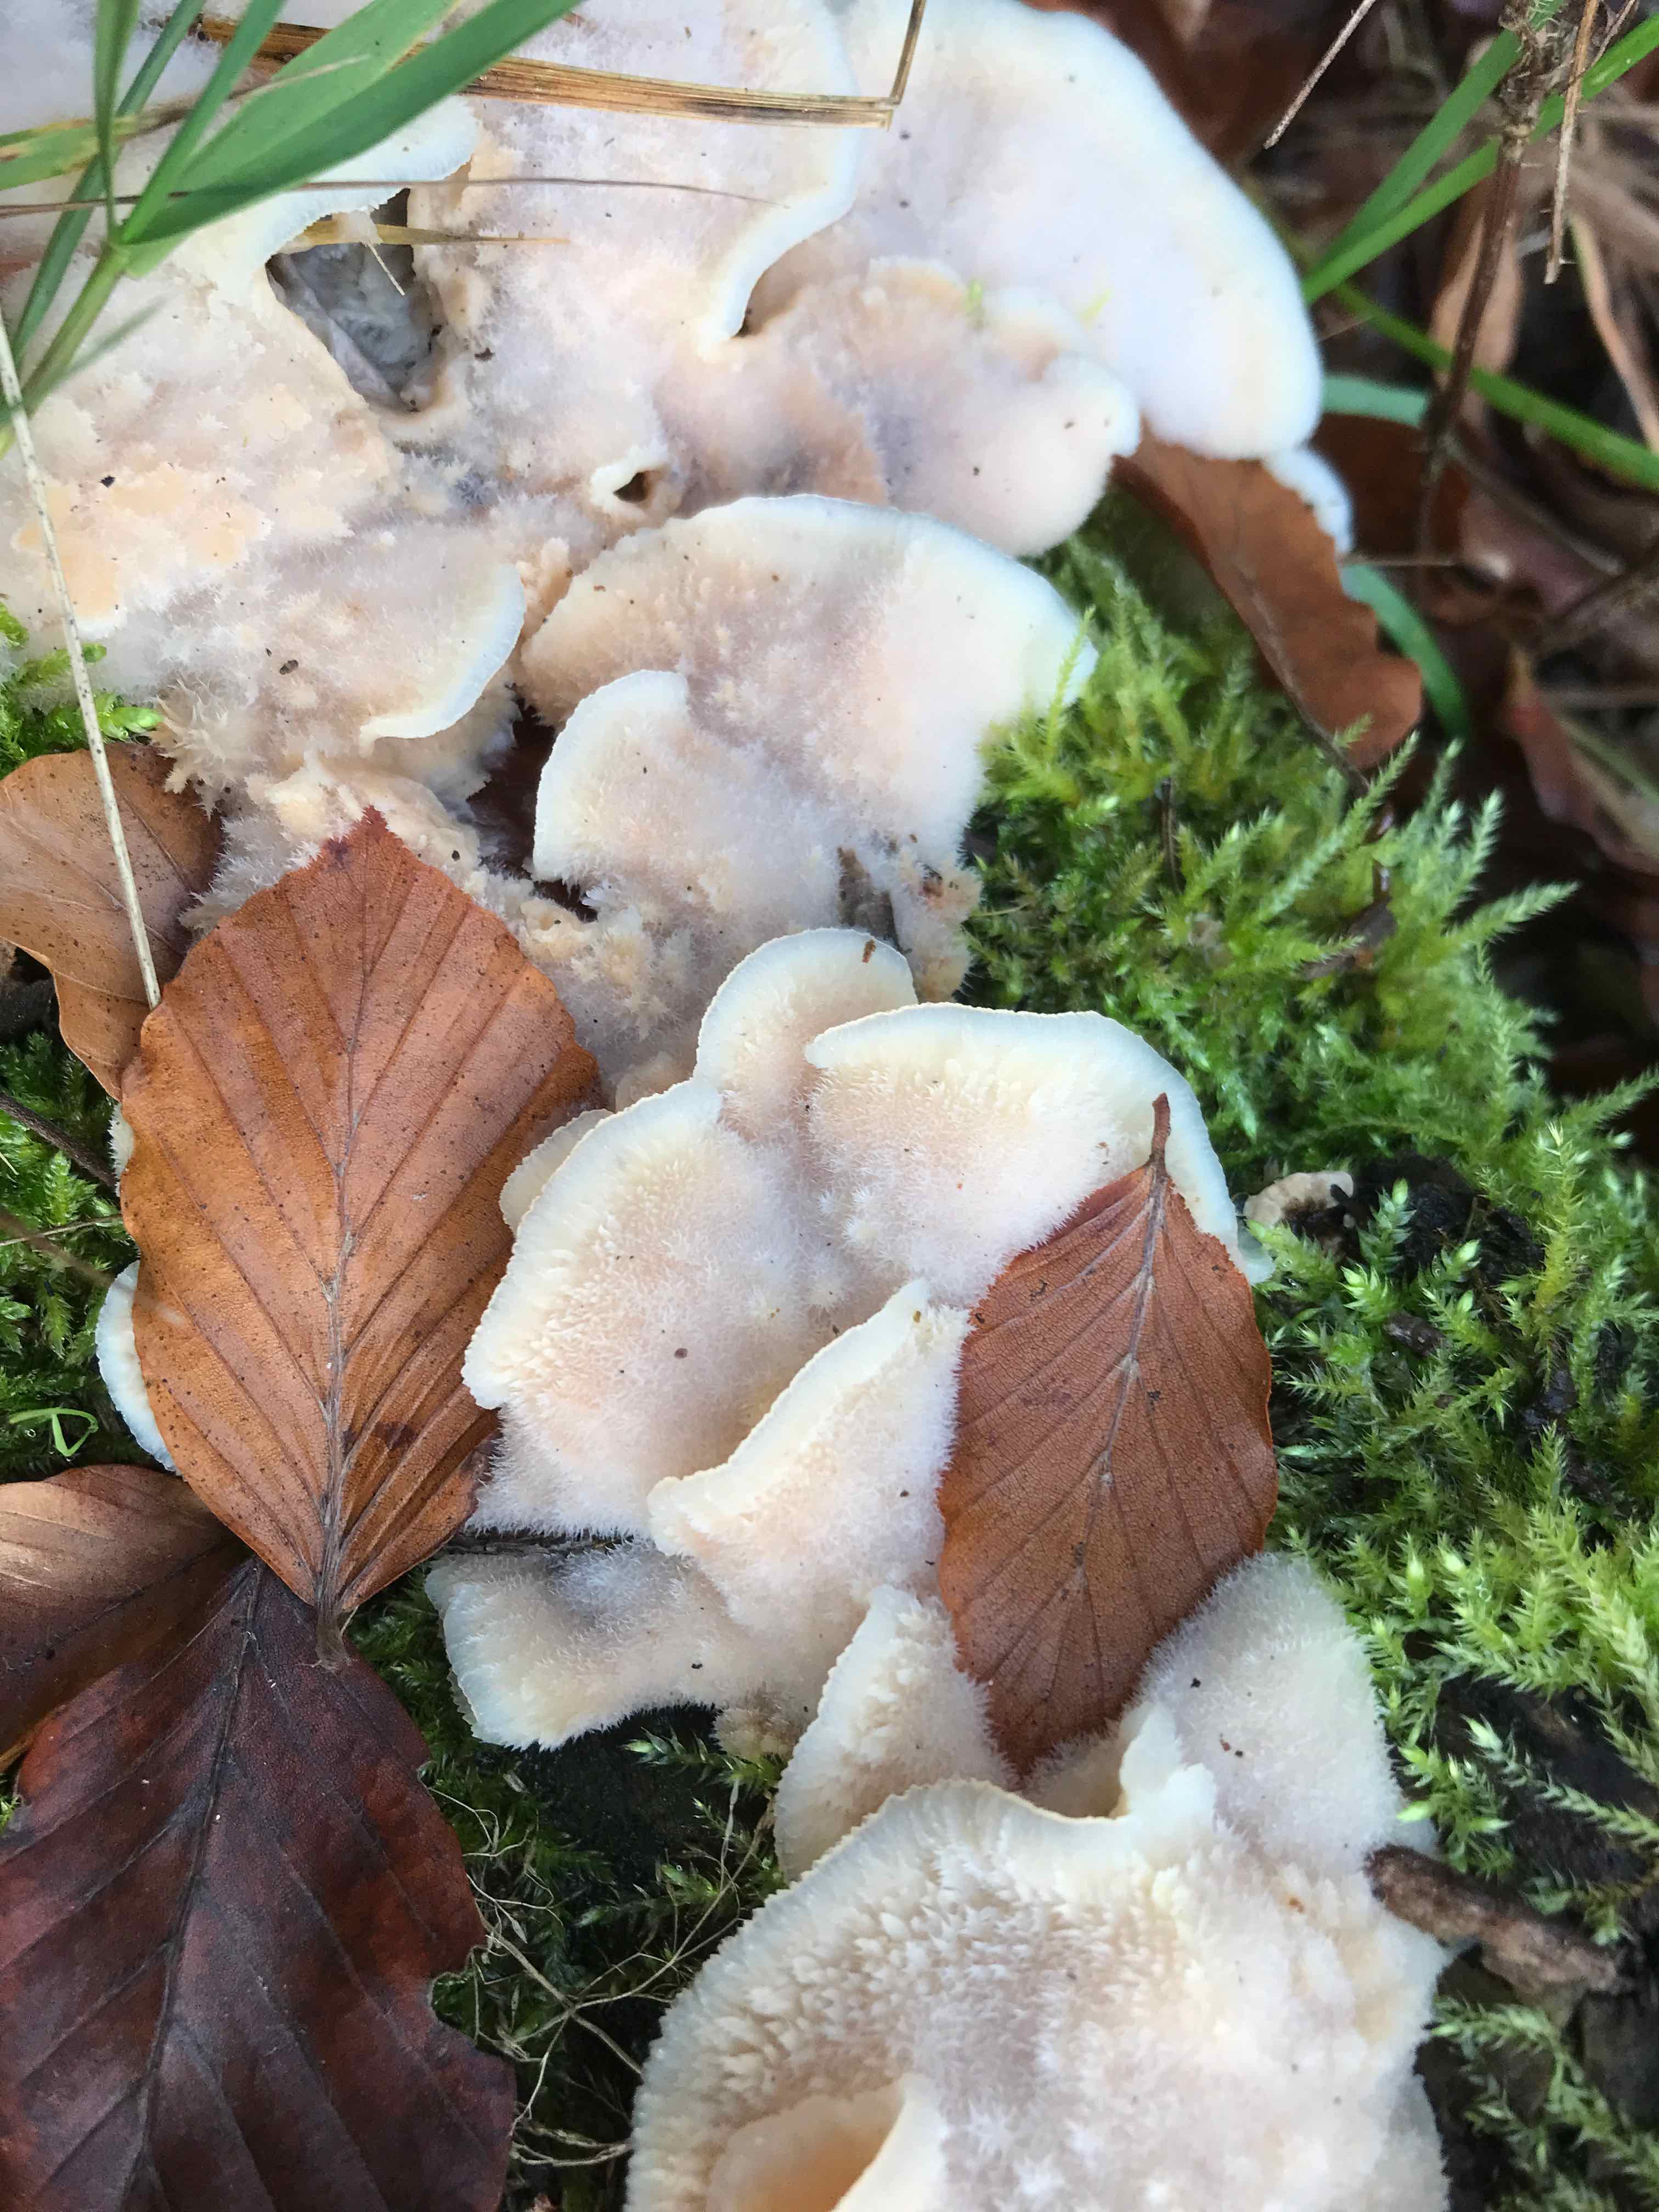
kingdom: Fungi
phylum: Basidiomycota
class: Agaricomycetes
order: Polyporales
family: Meruliaceae
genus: Phlebia
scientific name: Phlebia tremellosa
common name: bævrende åresvamp
